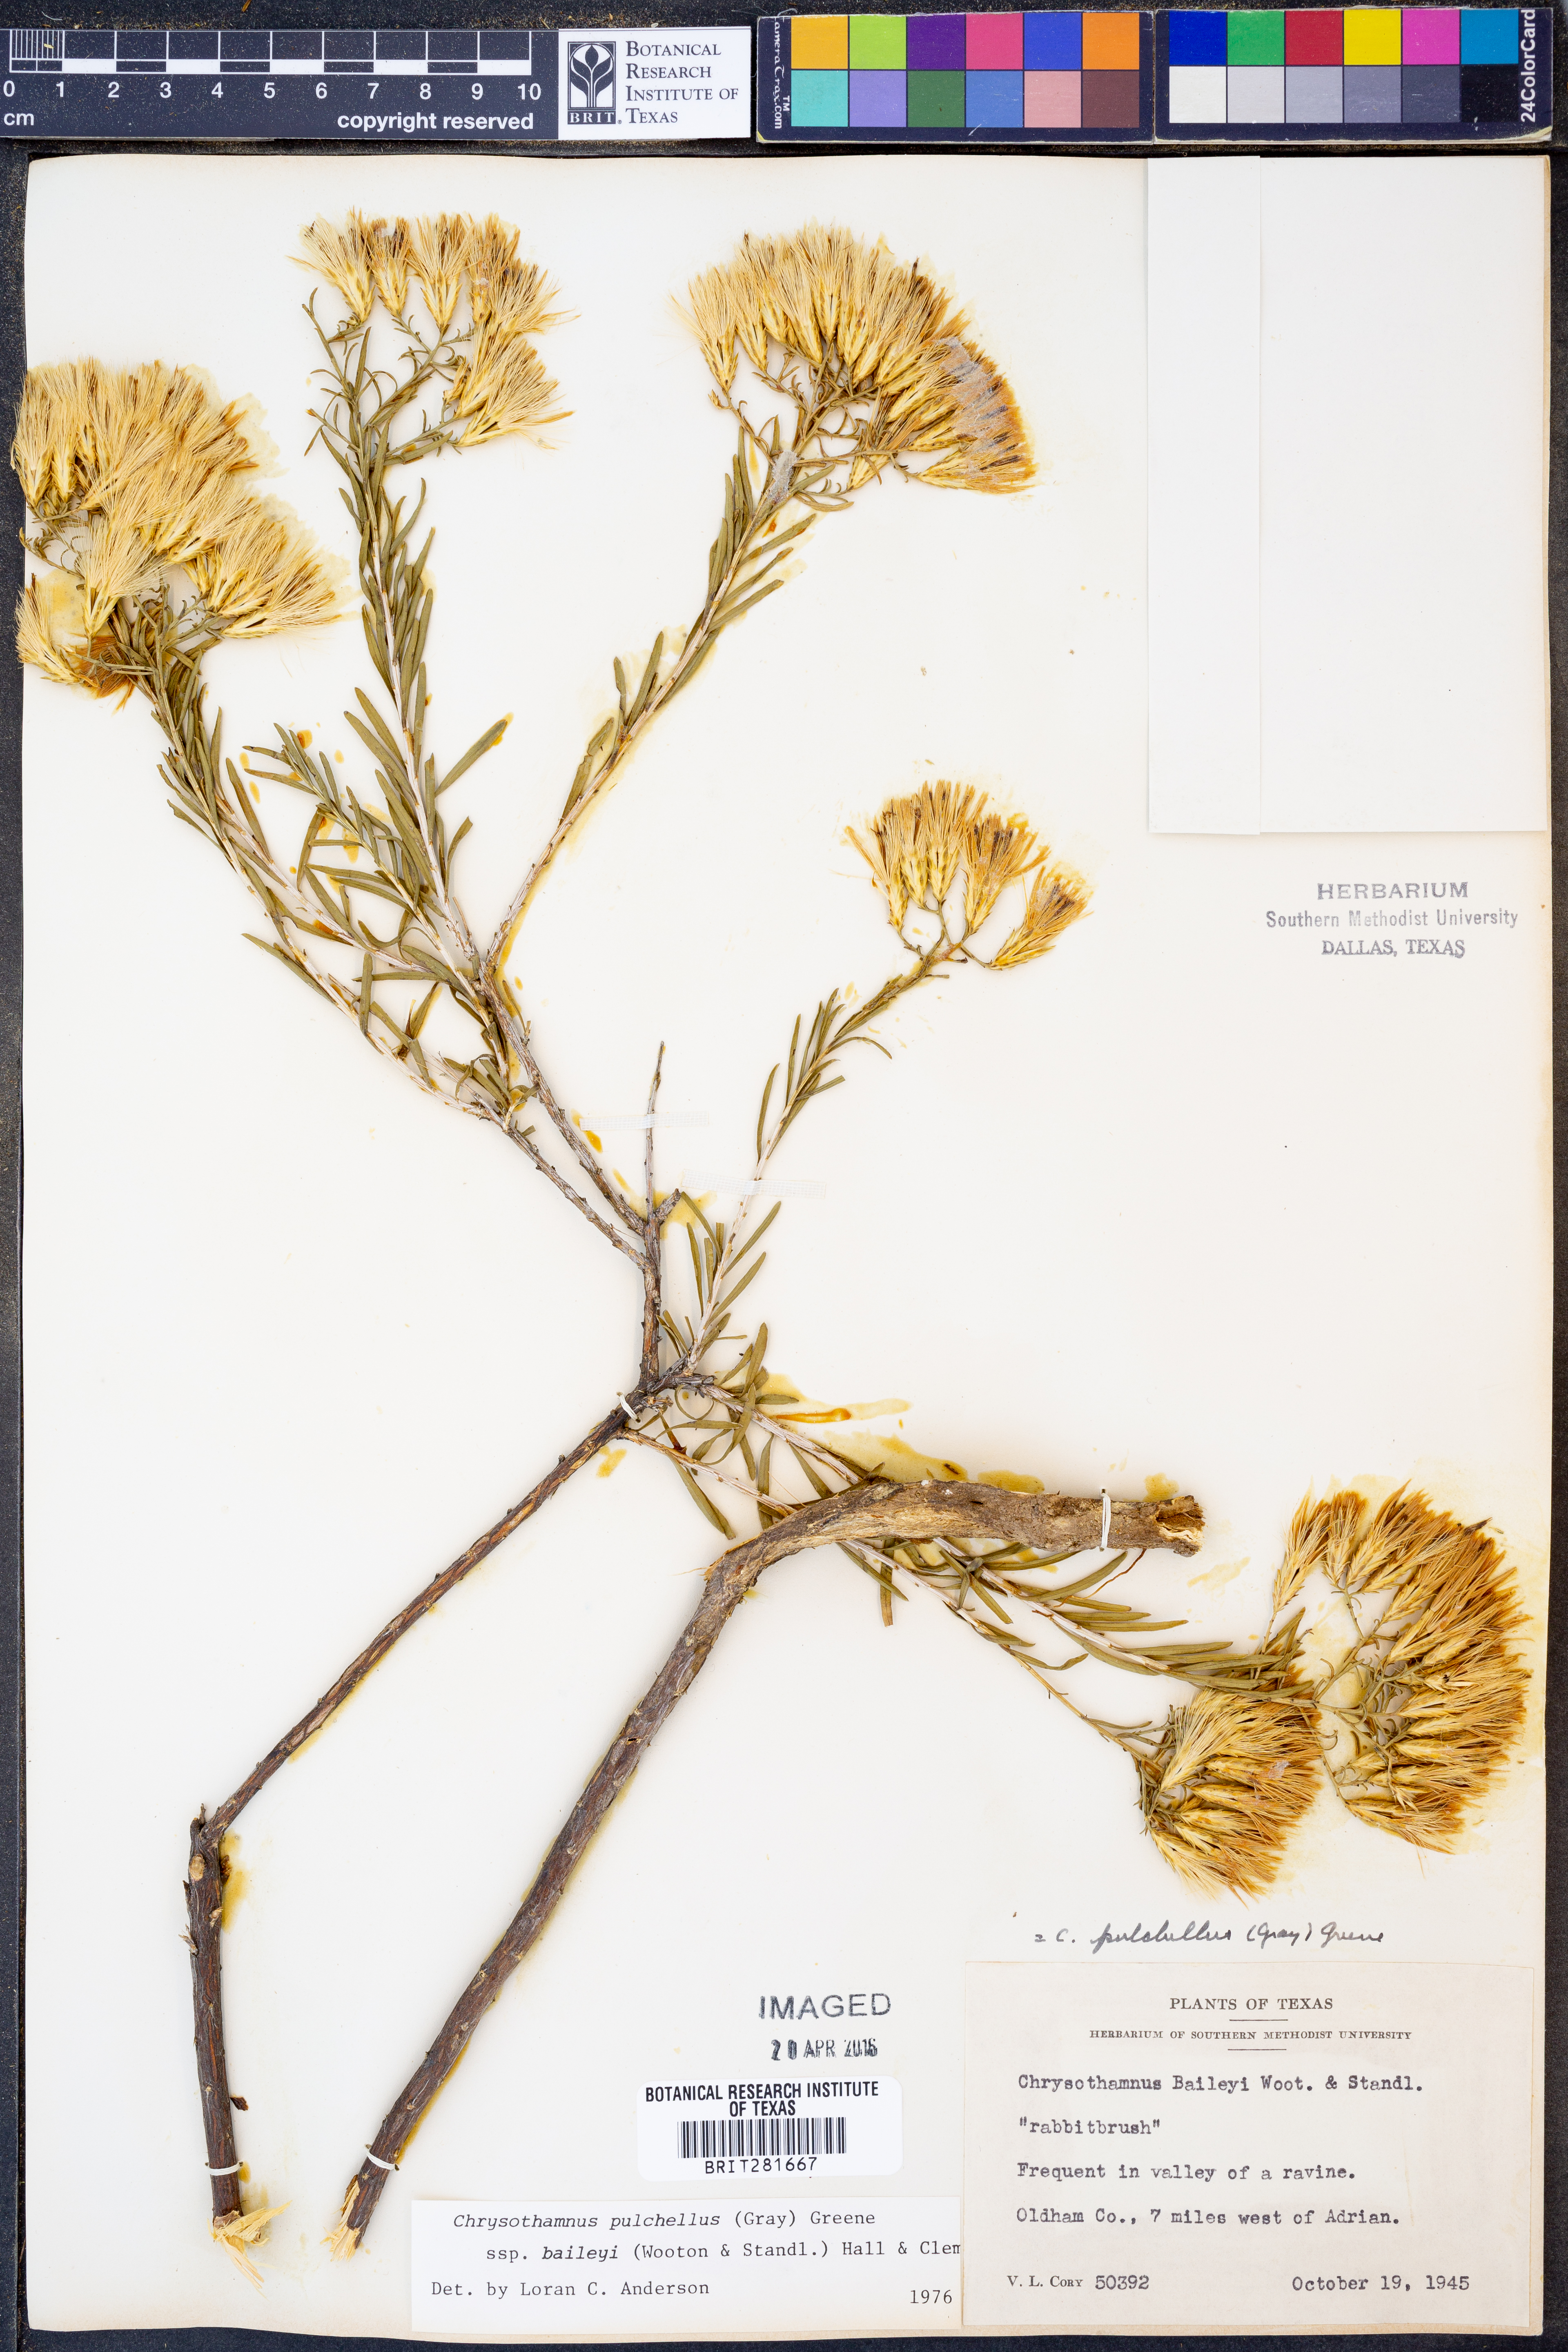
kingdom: Plantae
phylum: Tracheophyta
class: Magnoliopsida
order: Asterales
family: Asteraceae
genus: Lorandersonia
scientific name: Lorandersonia baileyi
